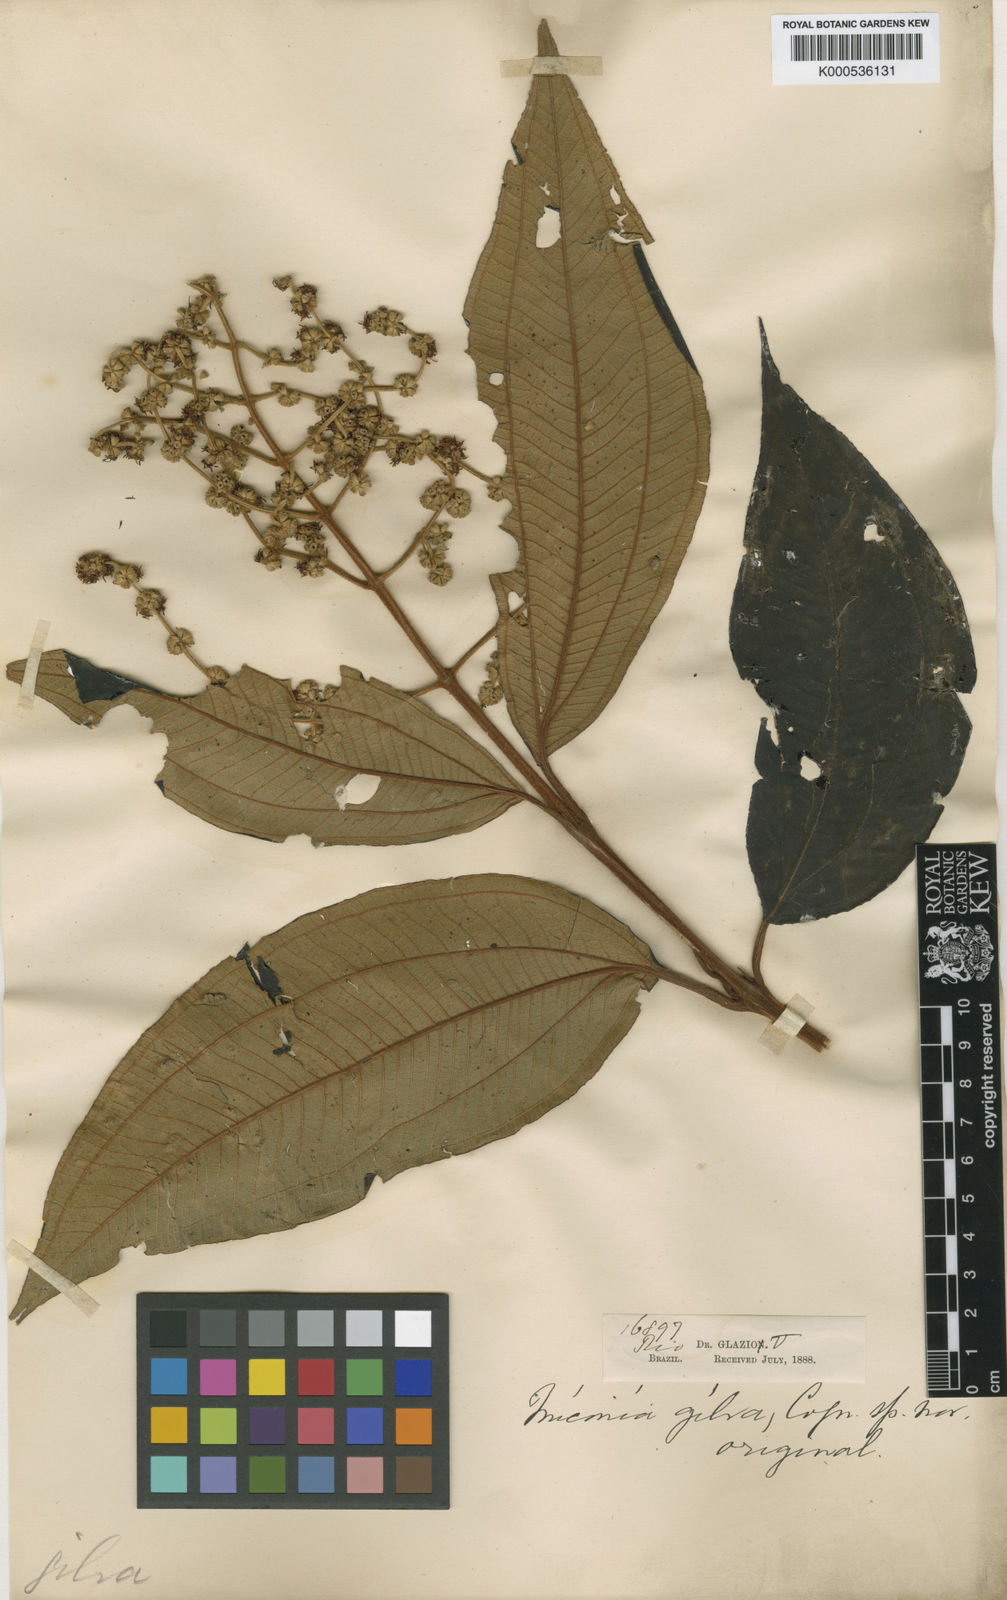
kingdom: Plantae
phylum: Tracheophyta
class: Magnoliopsida
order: Myrtales
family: Melastomataceae
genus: Miconia
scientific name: Miconia fasciculata
